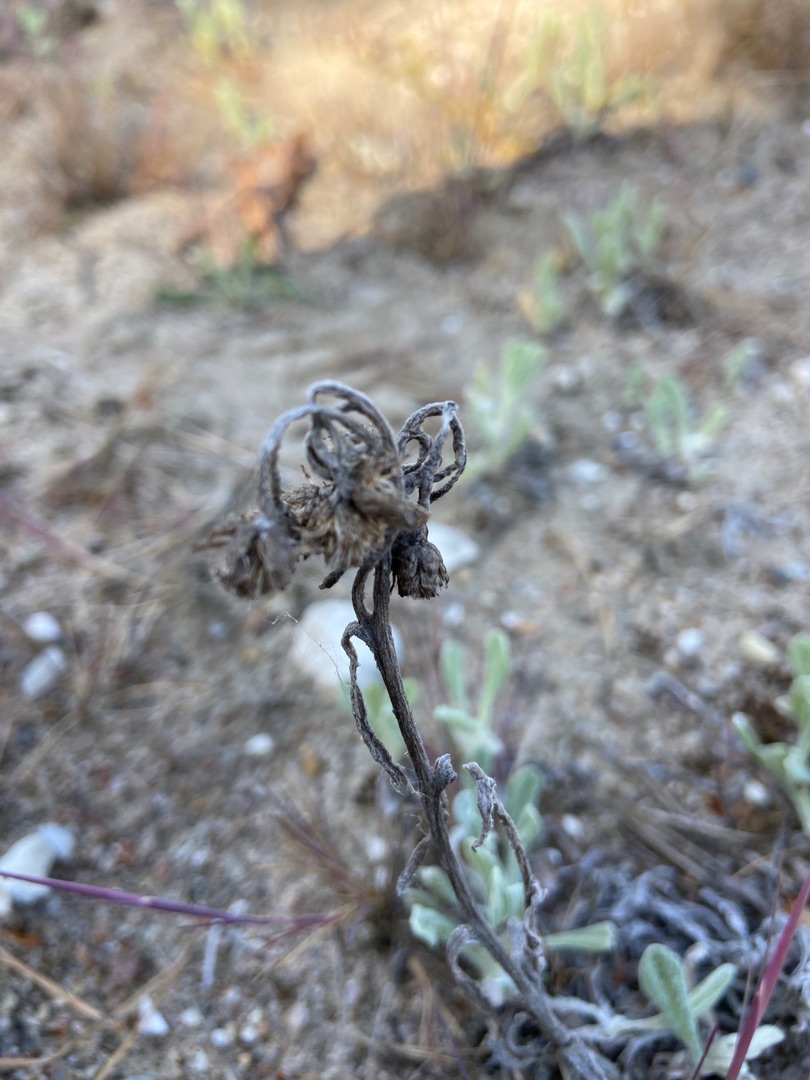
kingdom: Plantae
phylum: Tracheophyta
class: Magnoliopsida
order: Asterales
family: Asteraceae
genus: Helichrysum
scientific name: Helichrysum arenarium
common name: Gul evighedsblomst
